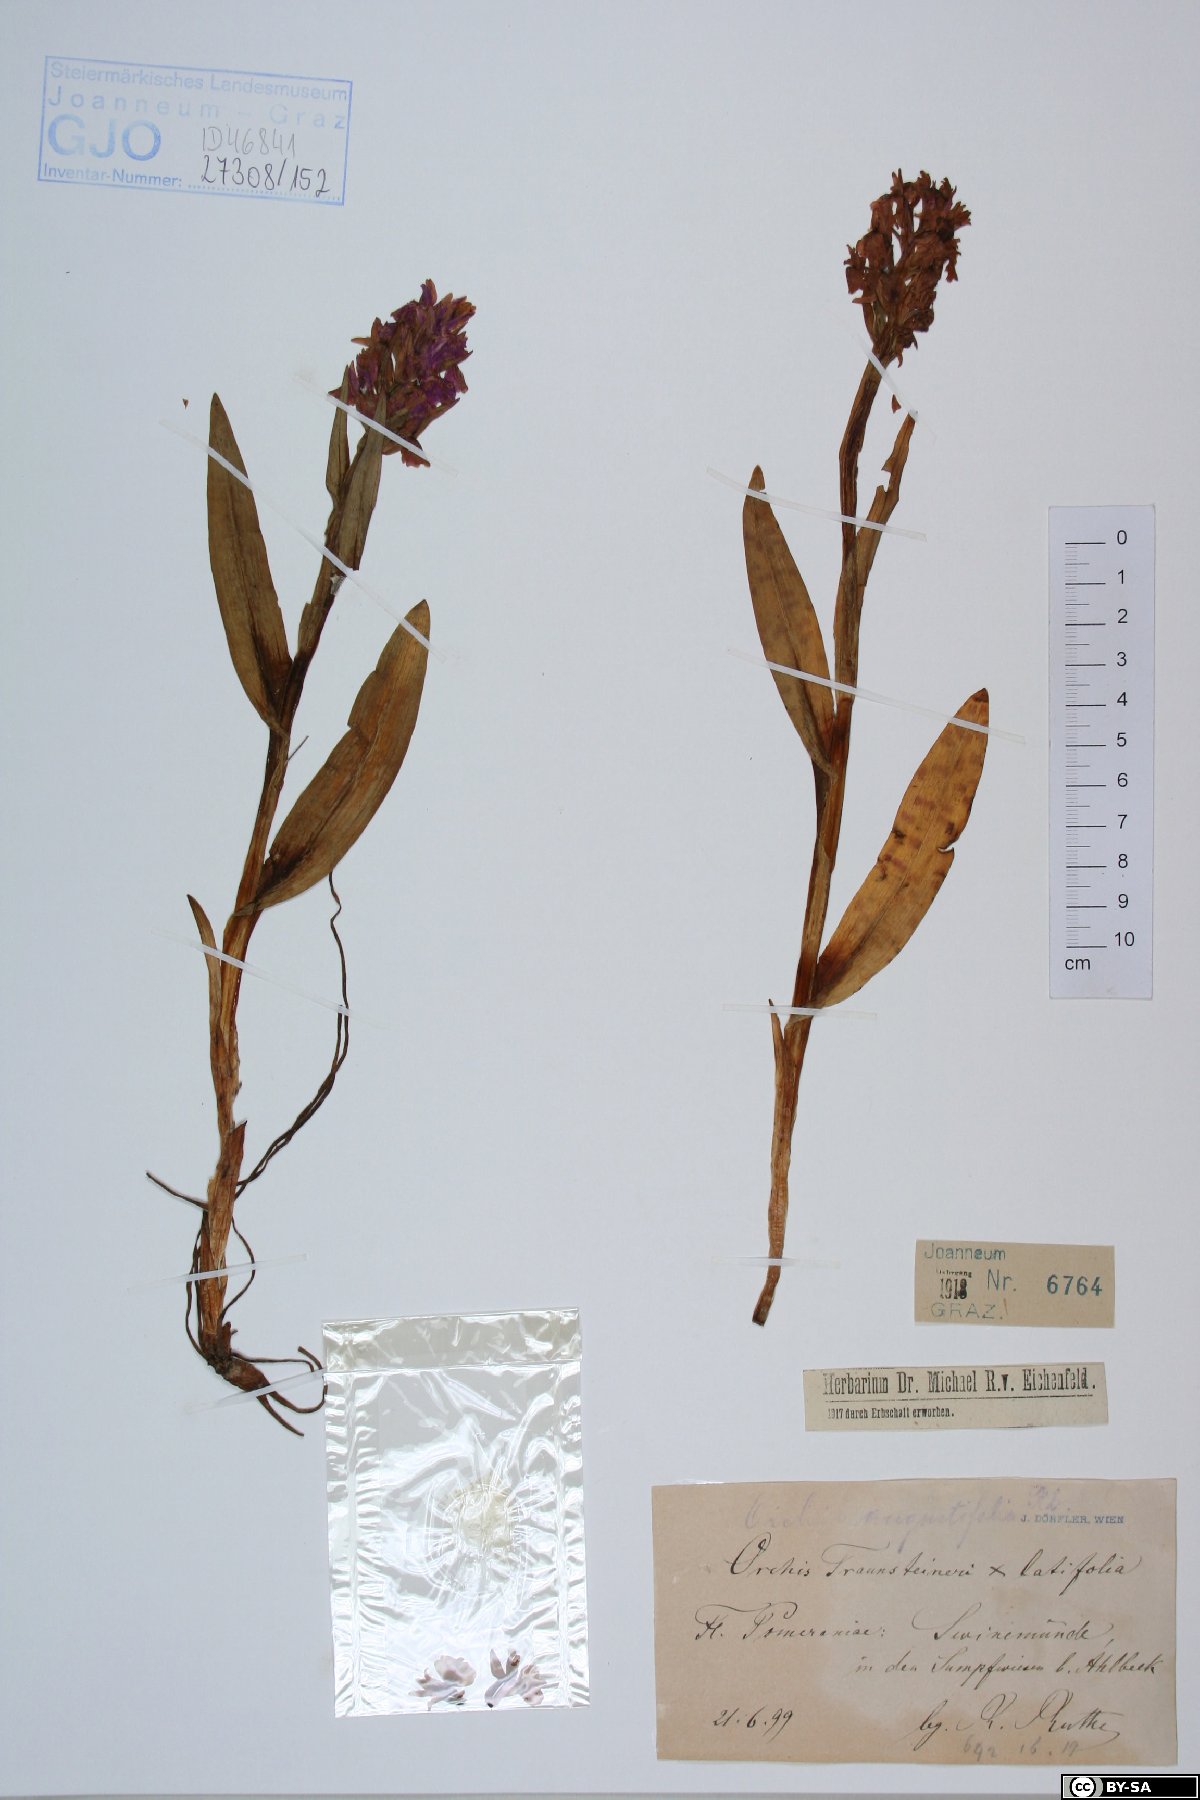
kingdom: Plantae
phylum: Tracheophyta
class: Liliopsida
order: Asparagales
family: Orchidaceae
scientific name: Orchidaceae
